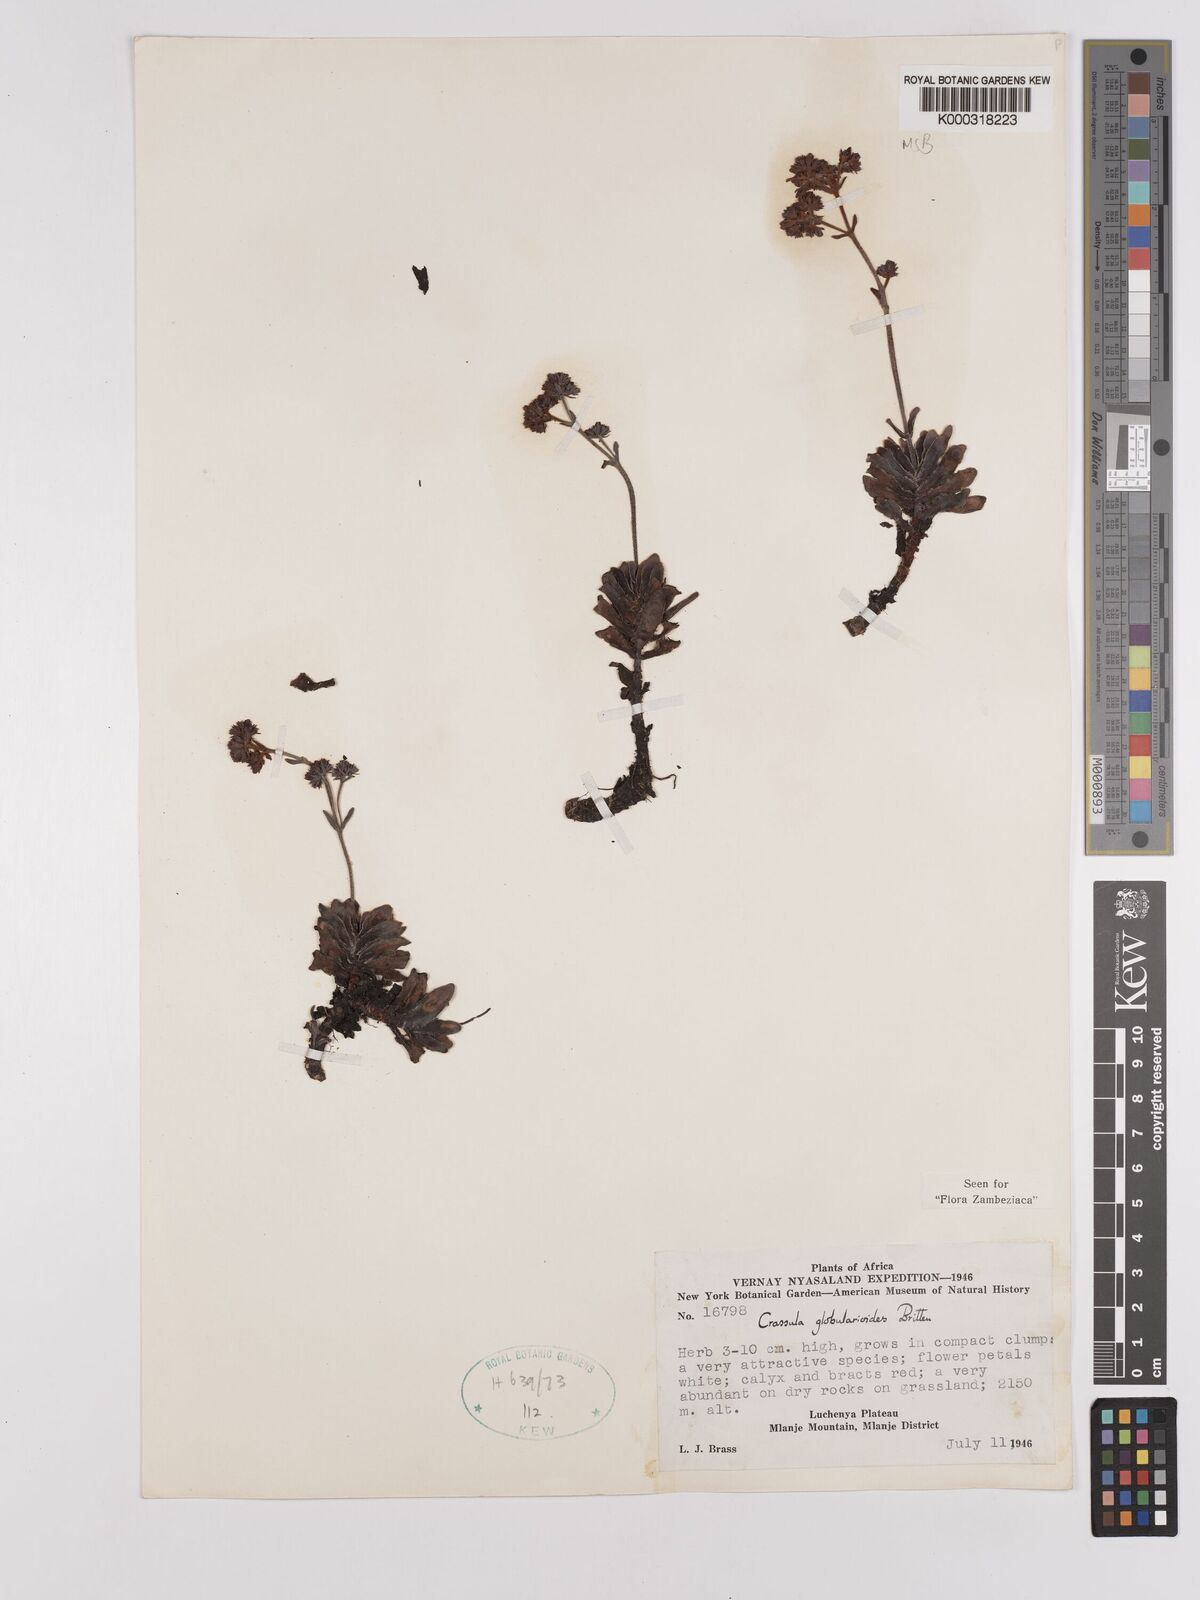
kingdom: Plantae
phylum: Tracheophyta
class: Magnoliopsida
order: Saxifragales
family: Crassulaceae
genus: Crassula
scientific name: Crassula globularioides
